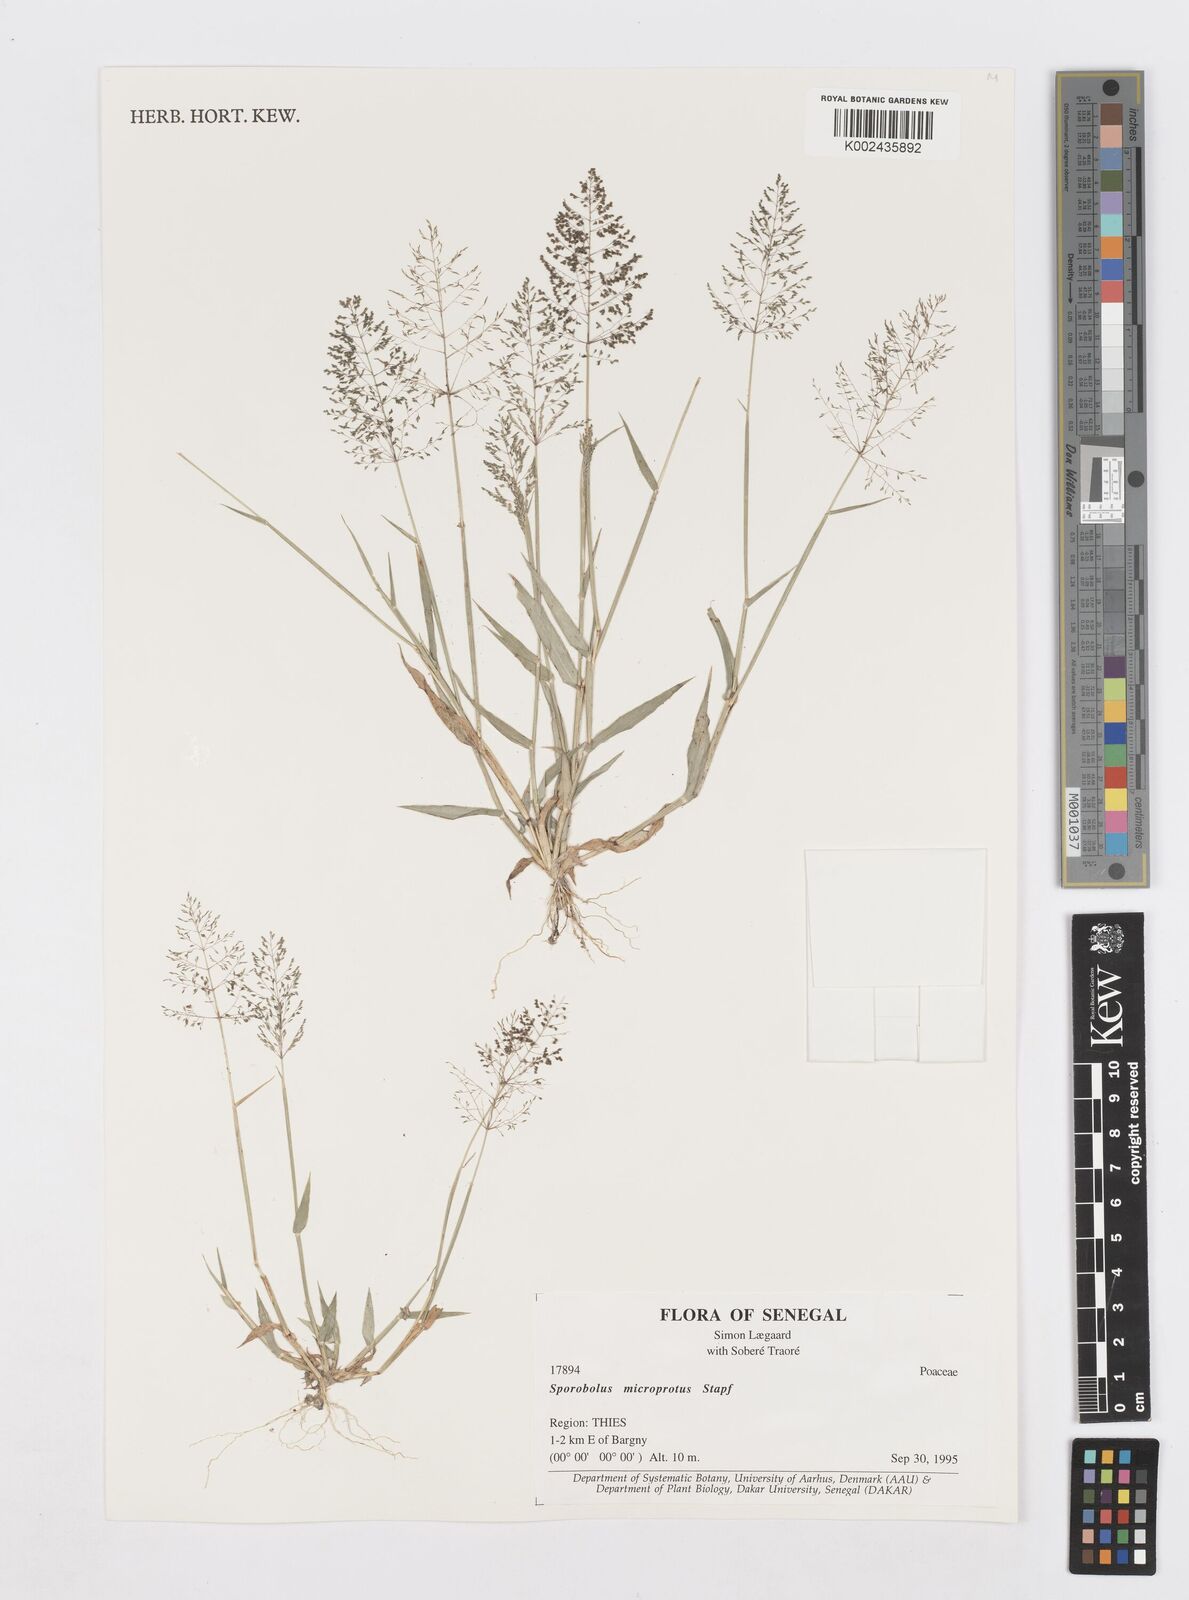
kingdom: Plantae
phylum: Tracheophyta
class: Liliopsida
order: Poales
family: Poaceae
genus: Sporobolus
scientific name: Sporobolus microprotus
